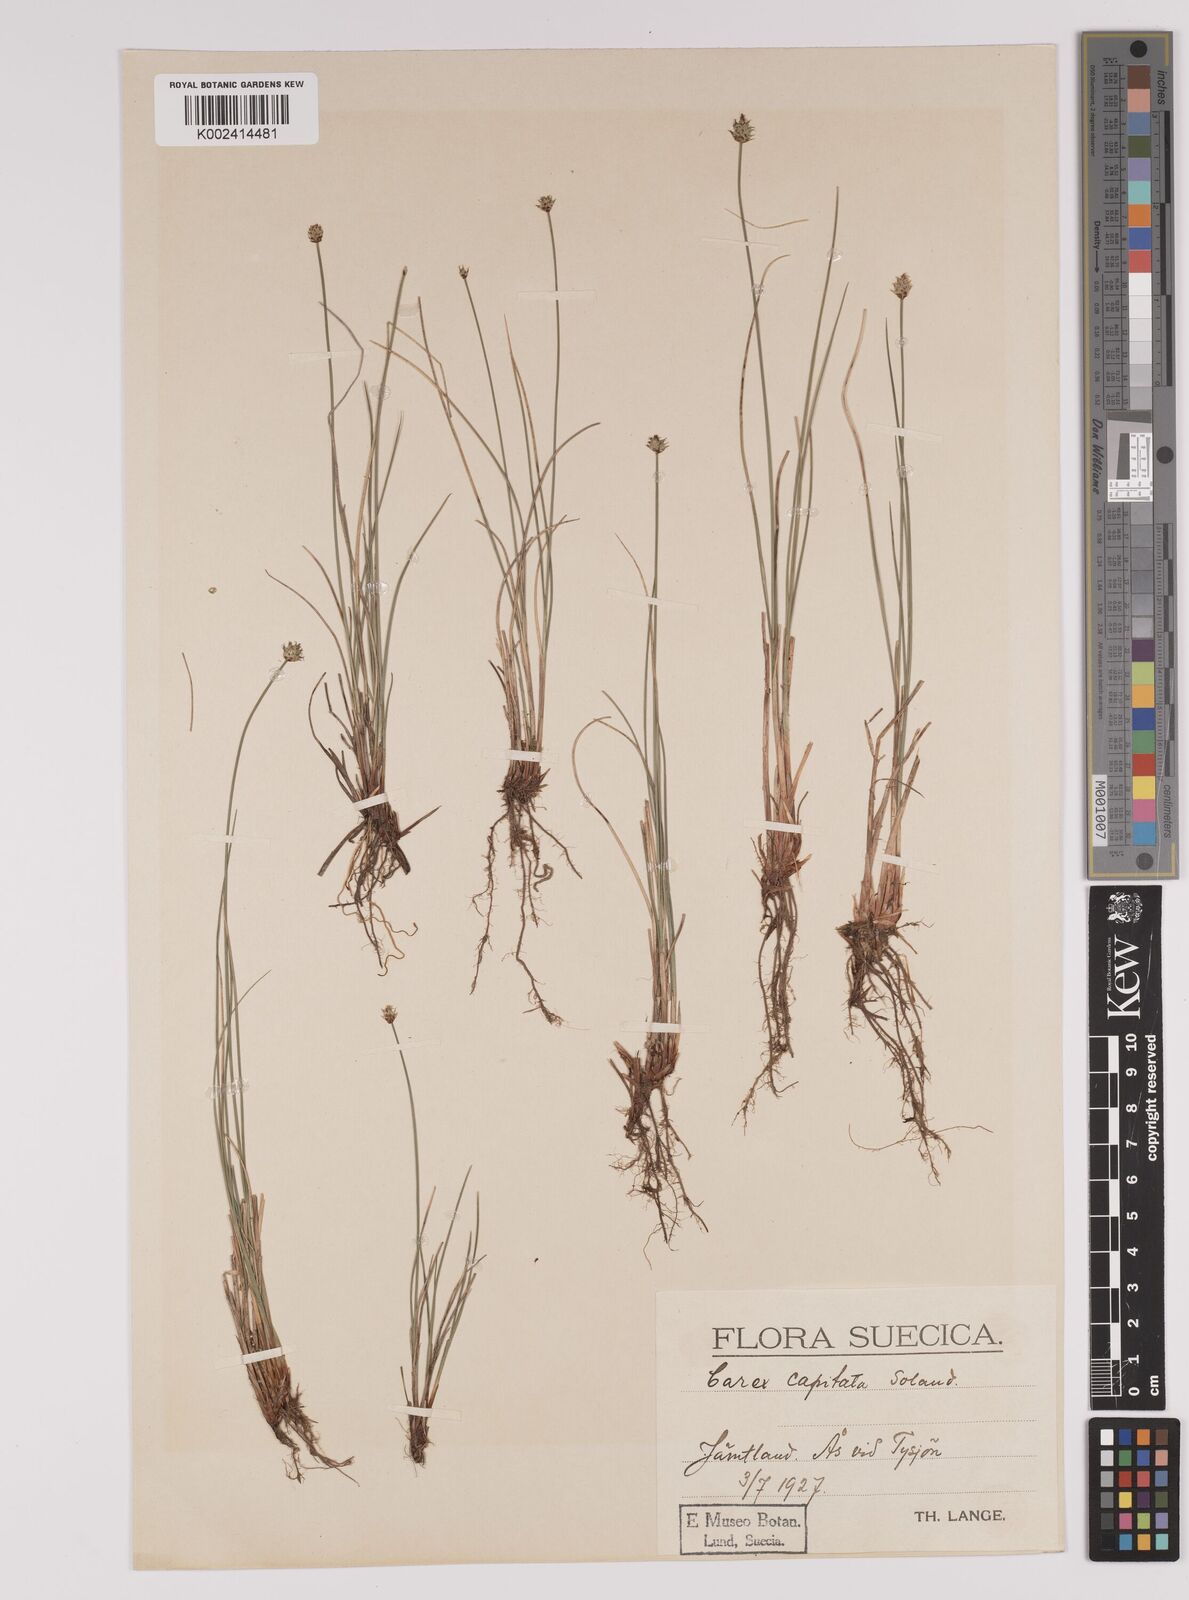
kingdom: Plantae
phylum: Tracheophyta
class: Liliopsida
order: Poales
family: Cyperaceae
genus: Carex
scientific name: Carex capitata
